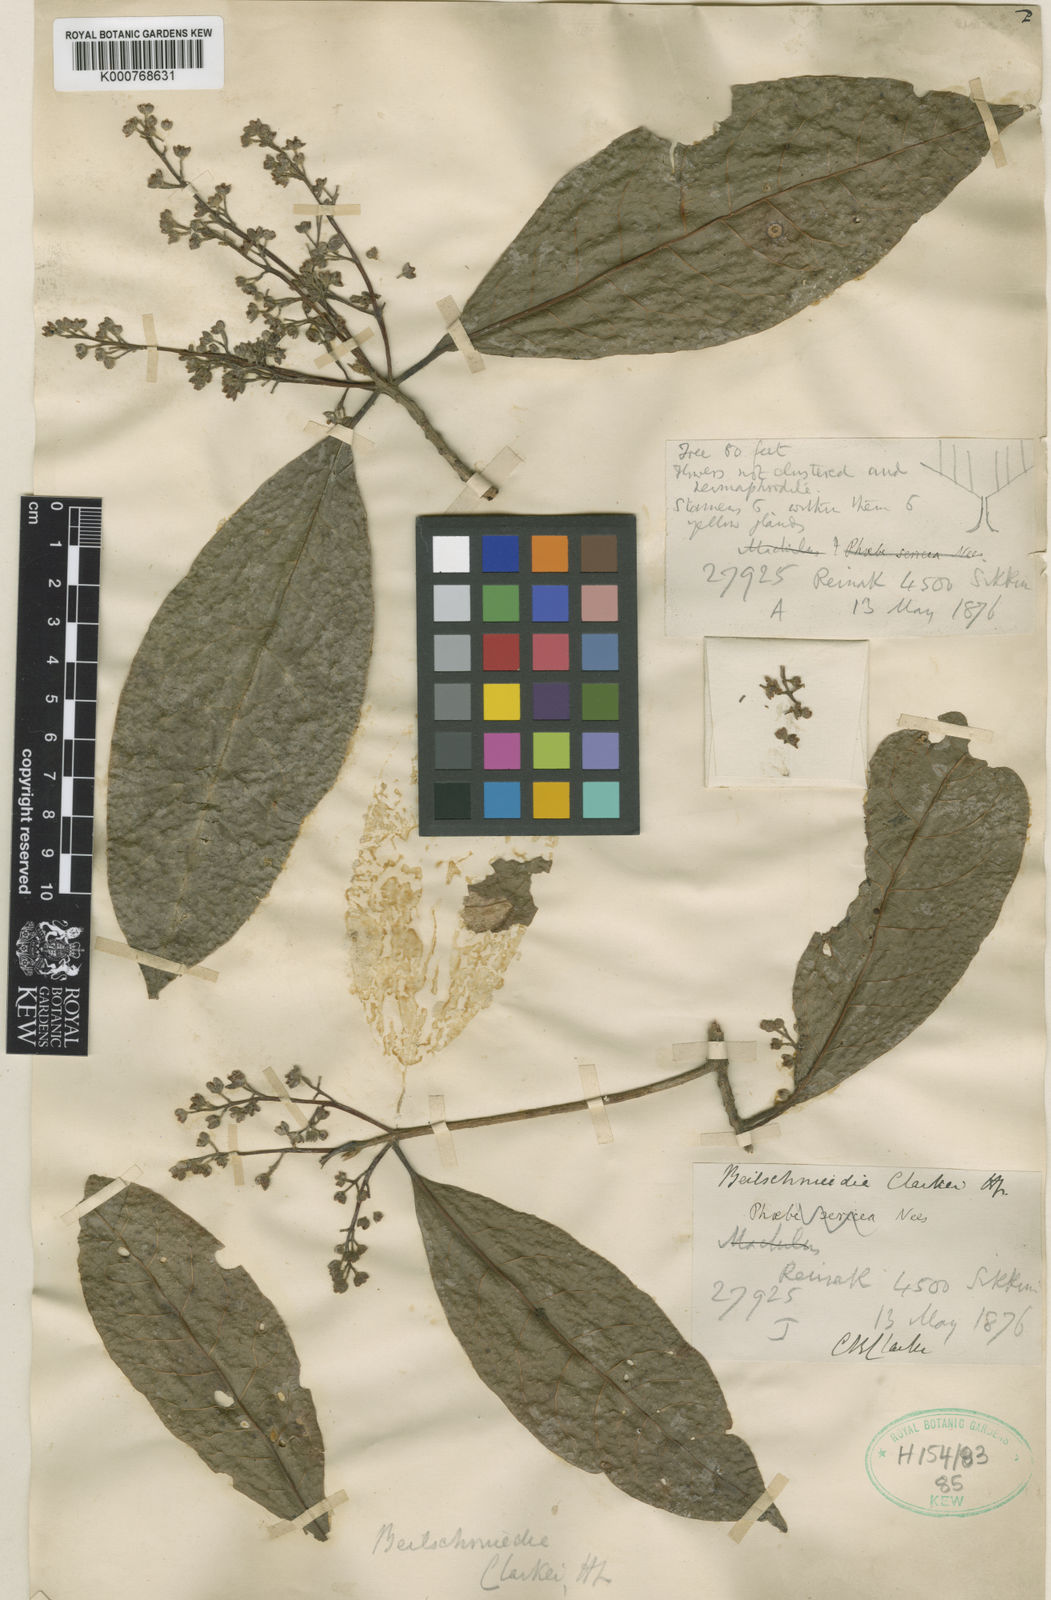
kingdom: Plantae
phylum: Tracheophyta
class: Magnoliopsida
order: Laurales
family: Lauraceae
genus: Beilschmiedia
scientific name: Beilschmiedia clarkei
